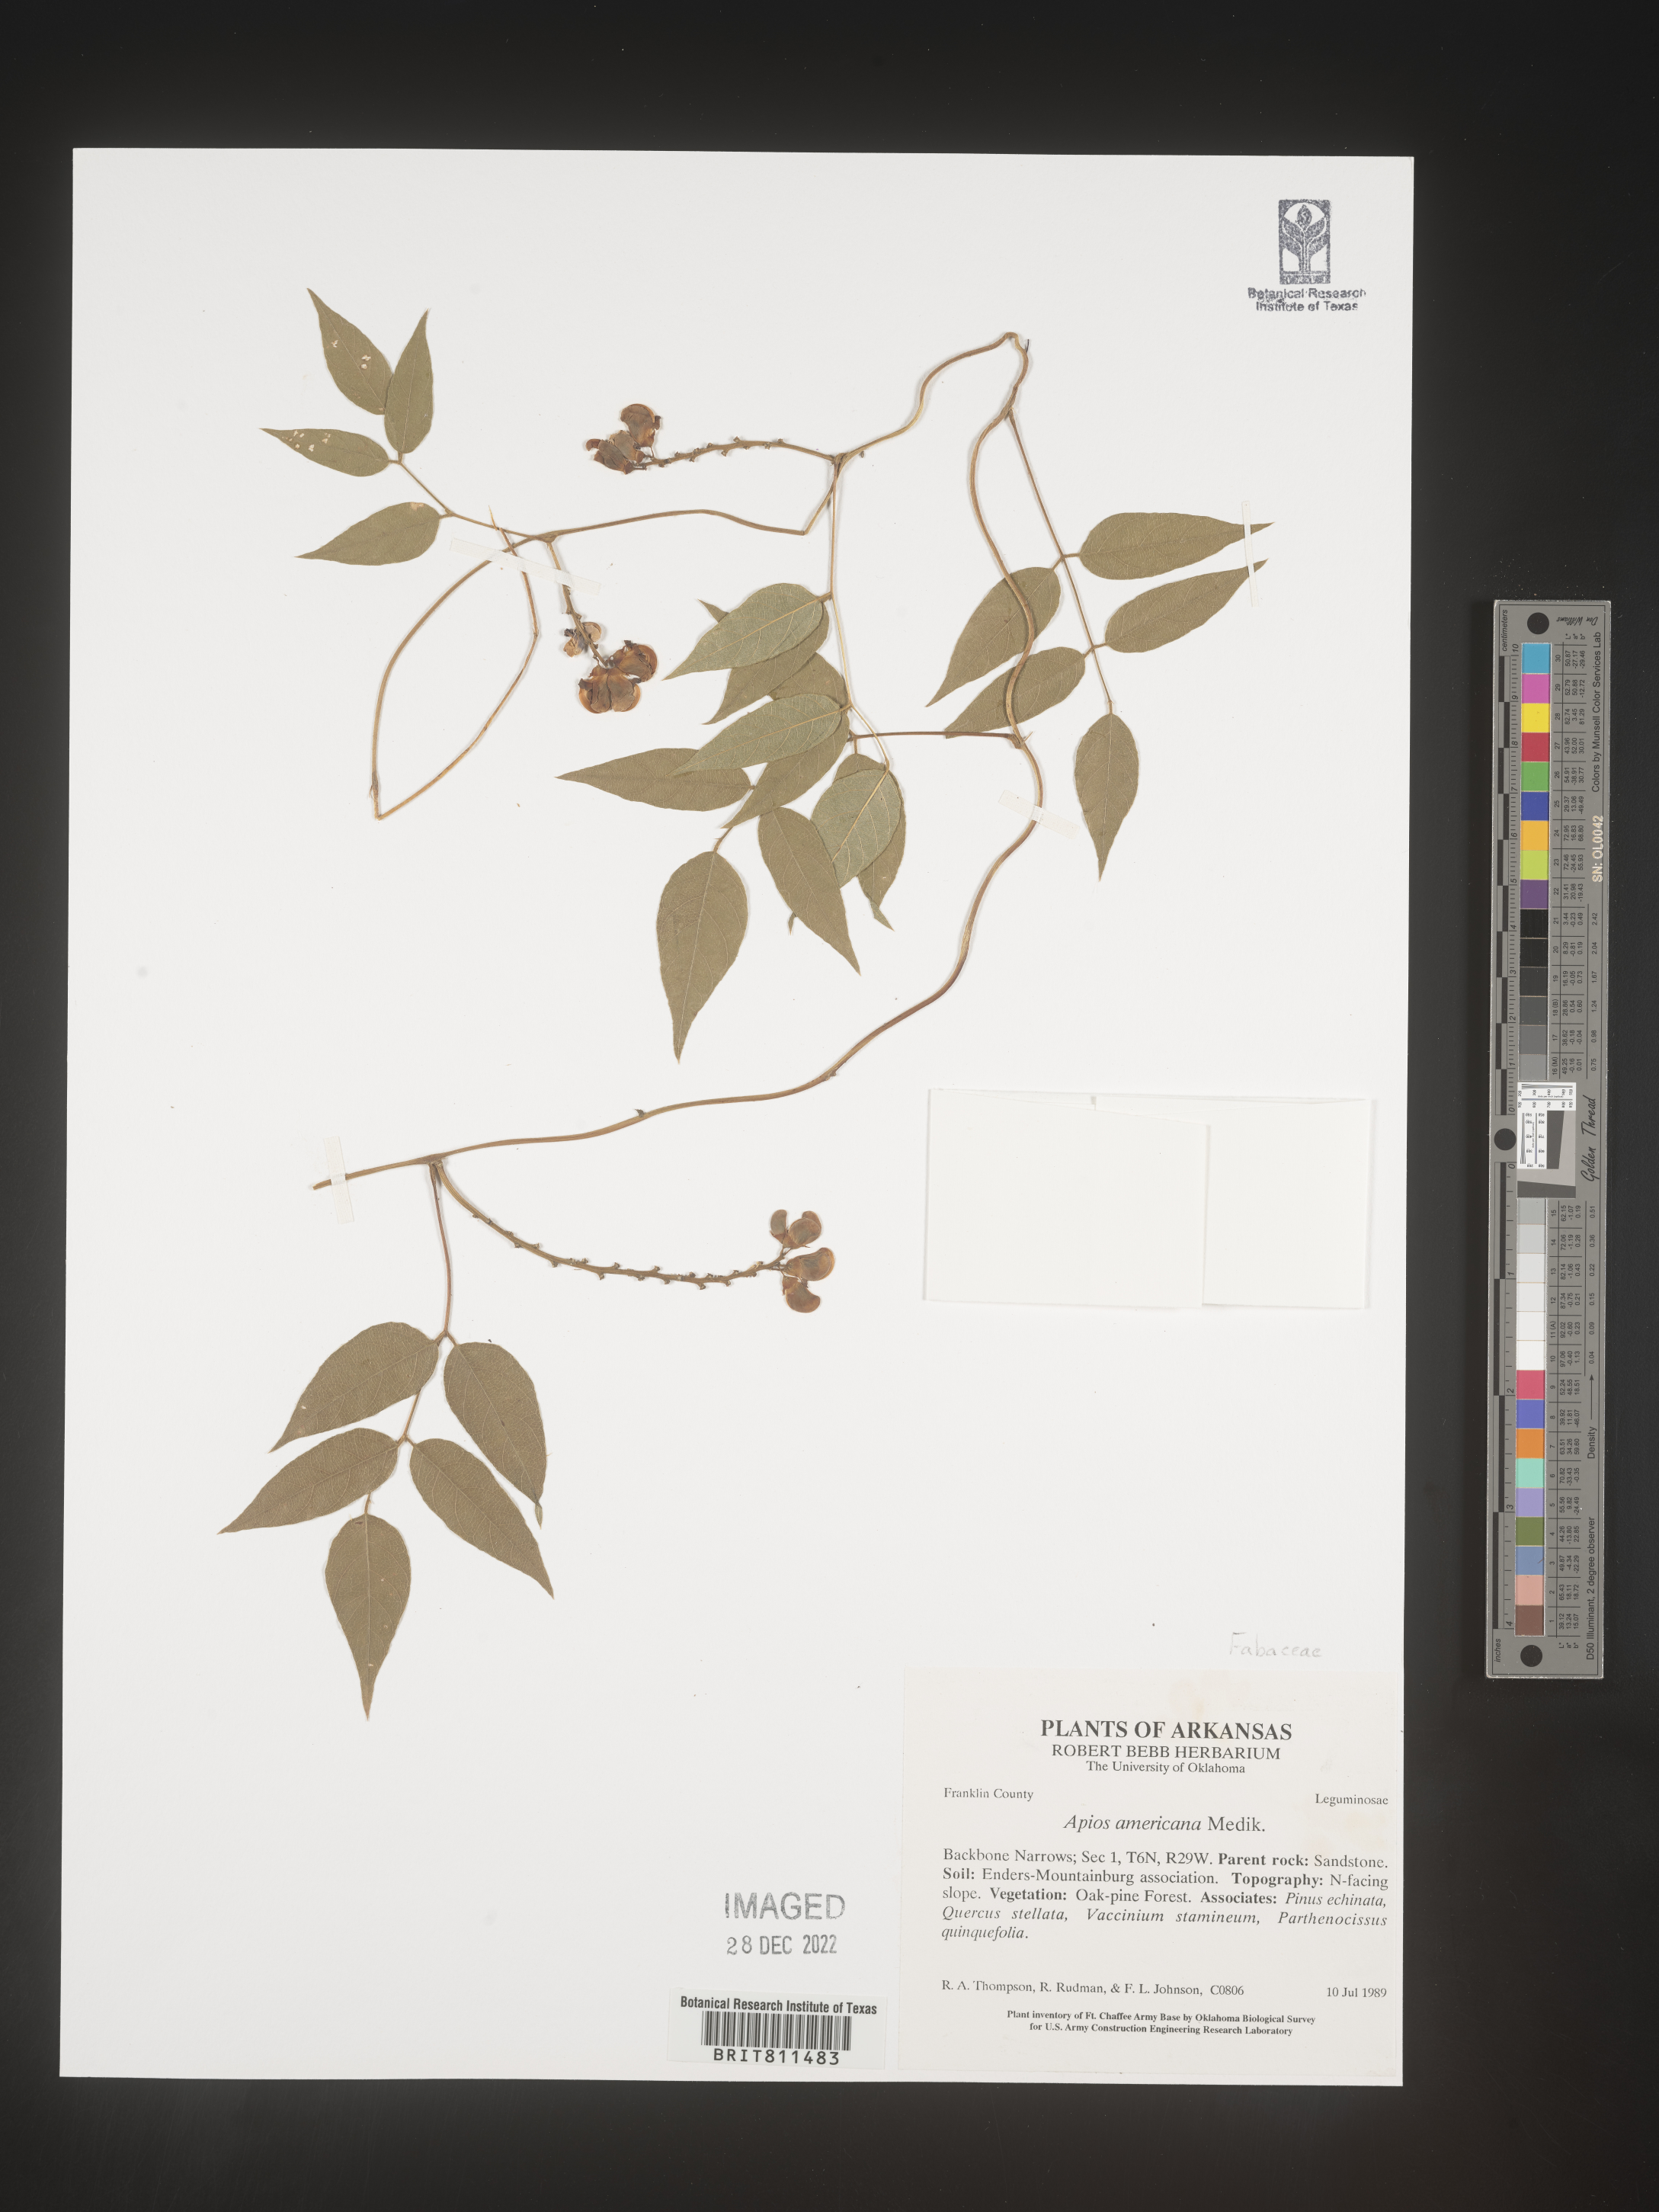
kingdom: Plantae
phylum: Tracheophyta
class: Magnoliopsida
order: Fabales
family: Fabaceae
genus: Apios
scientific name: Apios americana
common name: American potato-bean
